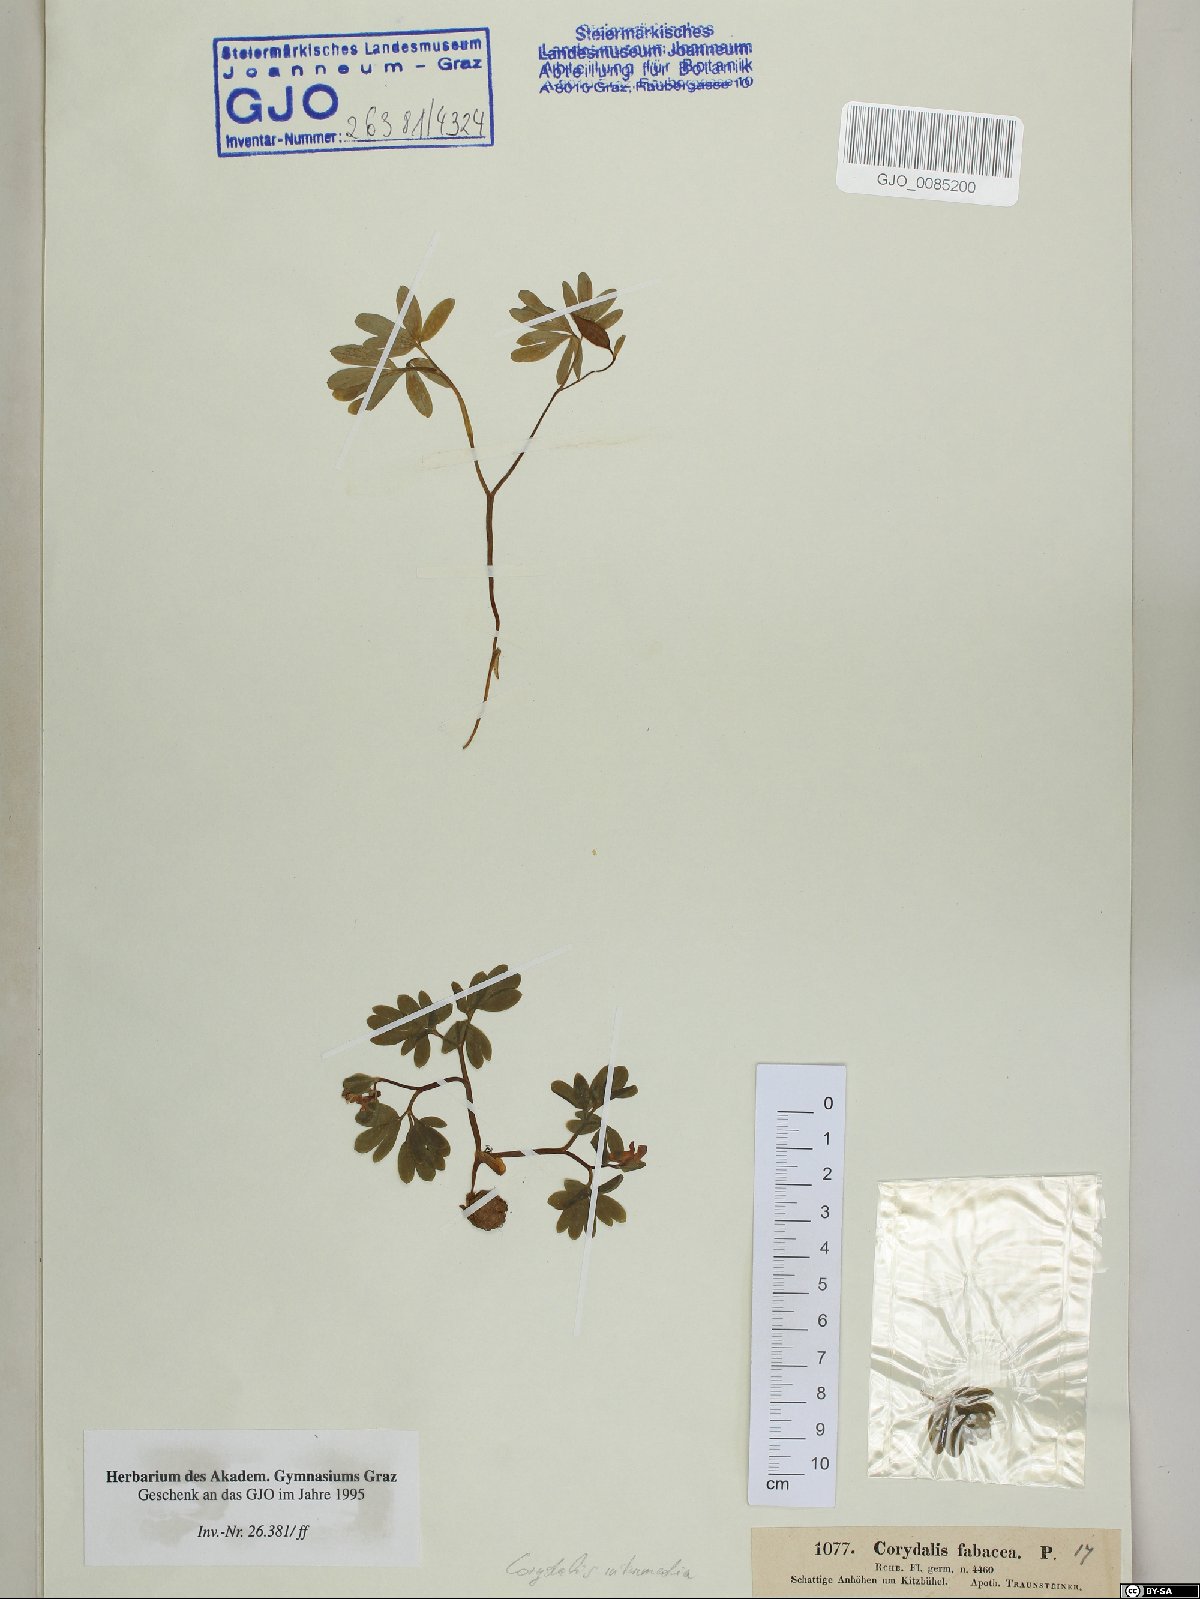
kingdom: Plantae
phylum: Tracheophyta
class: Magnoliopsida
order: Ranunculales
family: Papaveraceae
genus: Corydalis
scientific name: Corydalis intermedia
